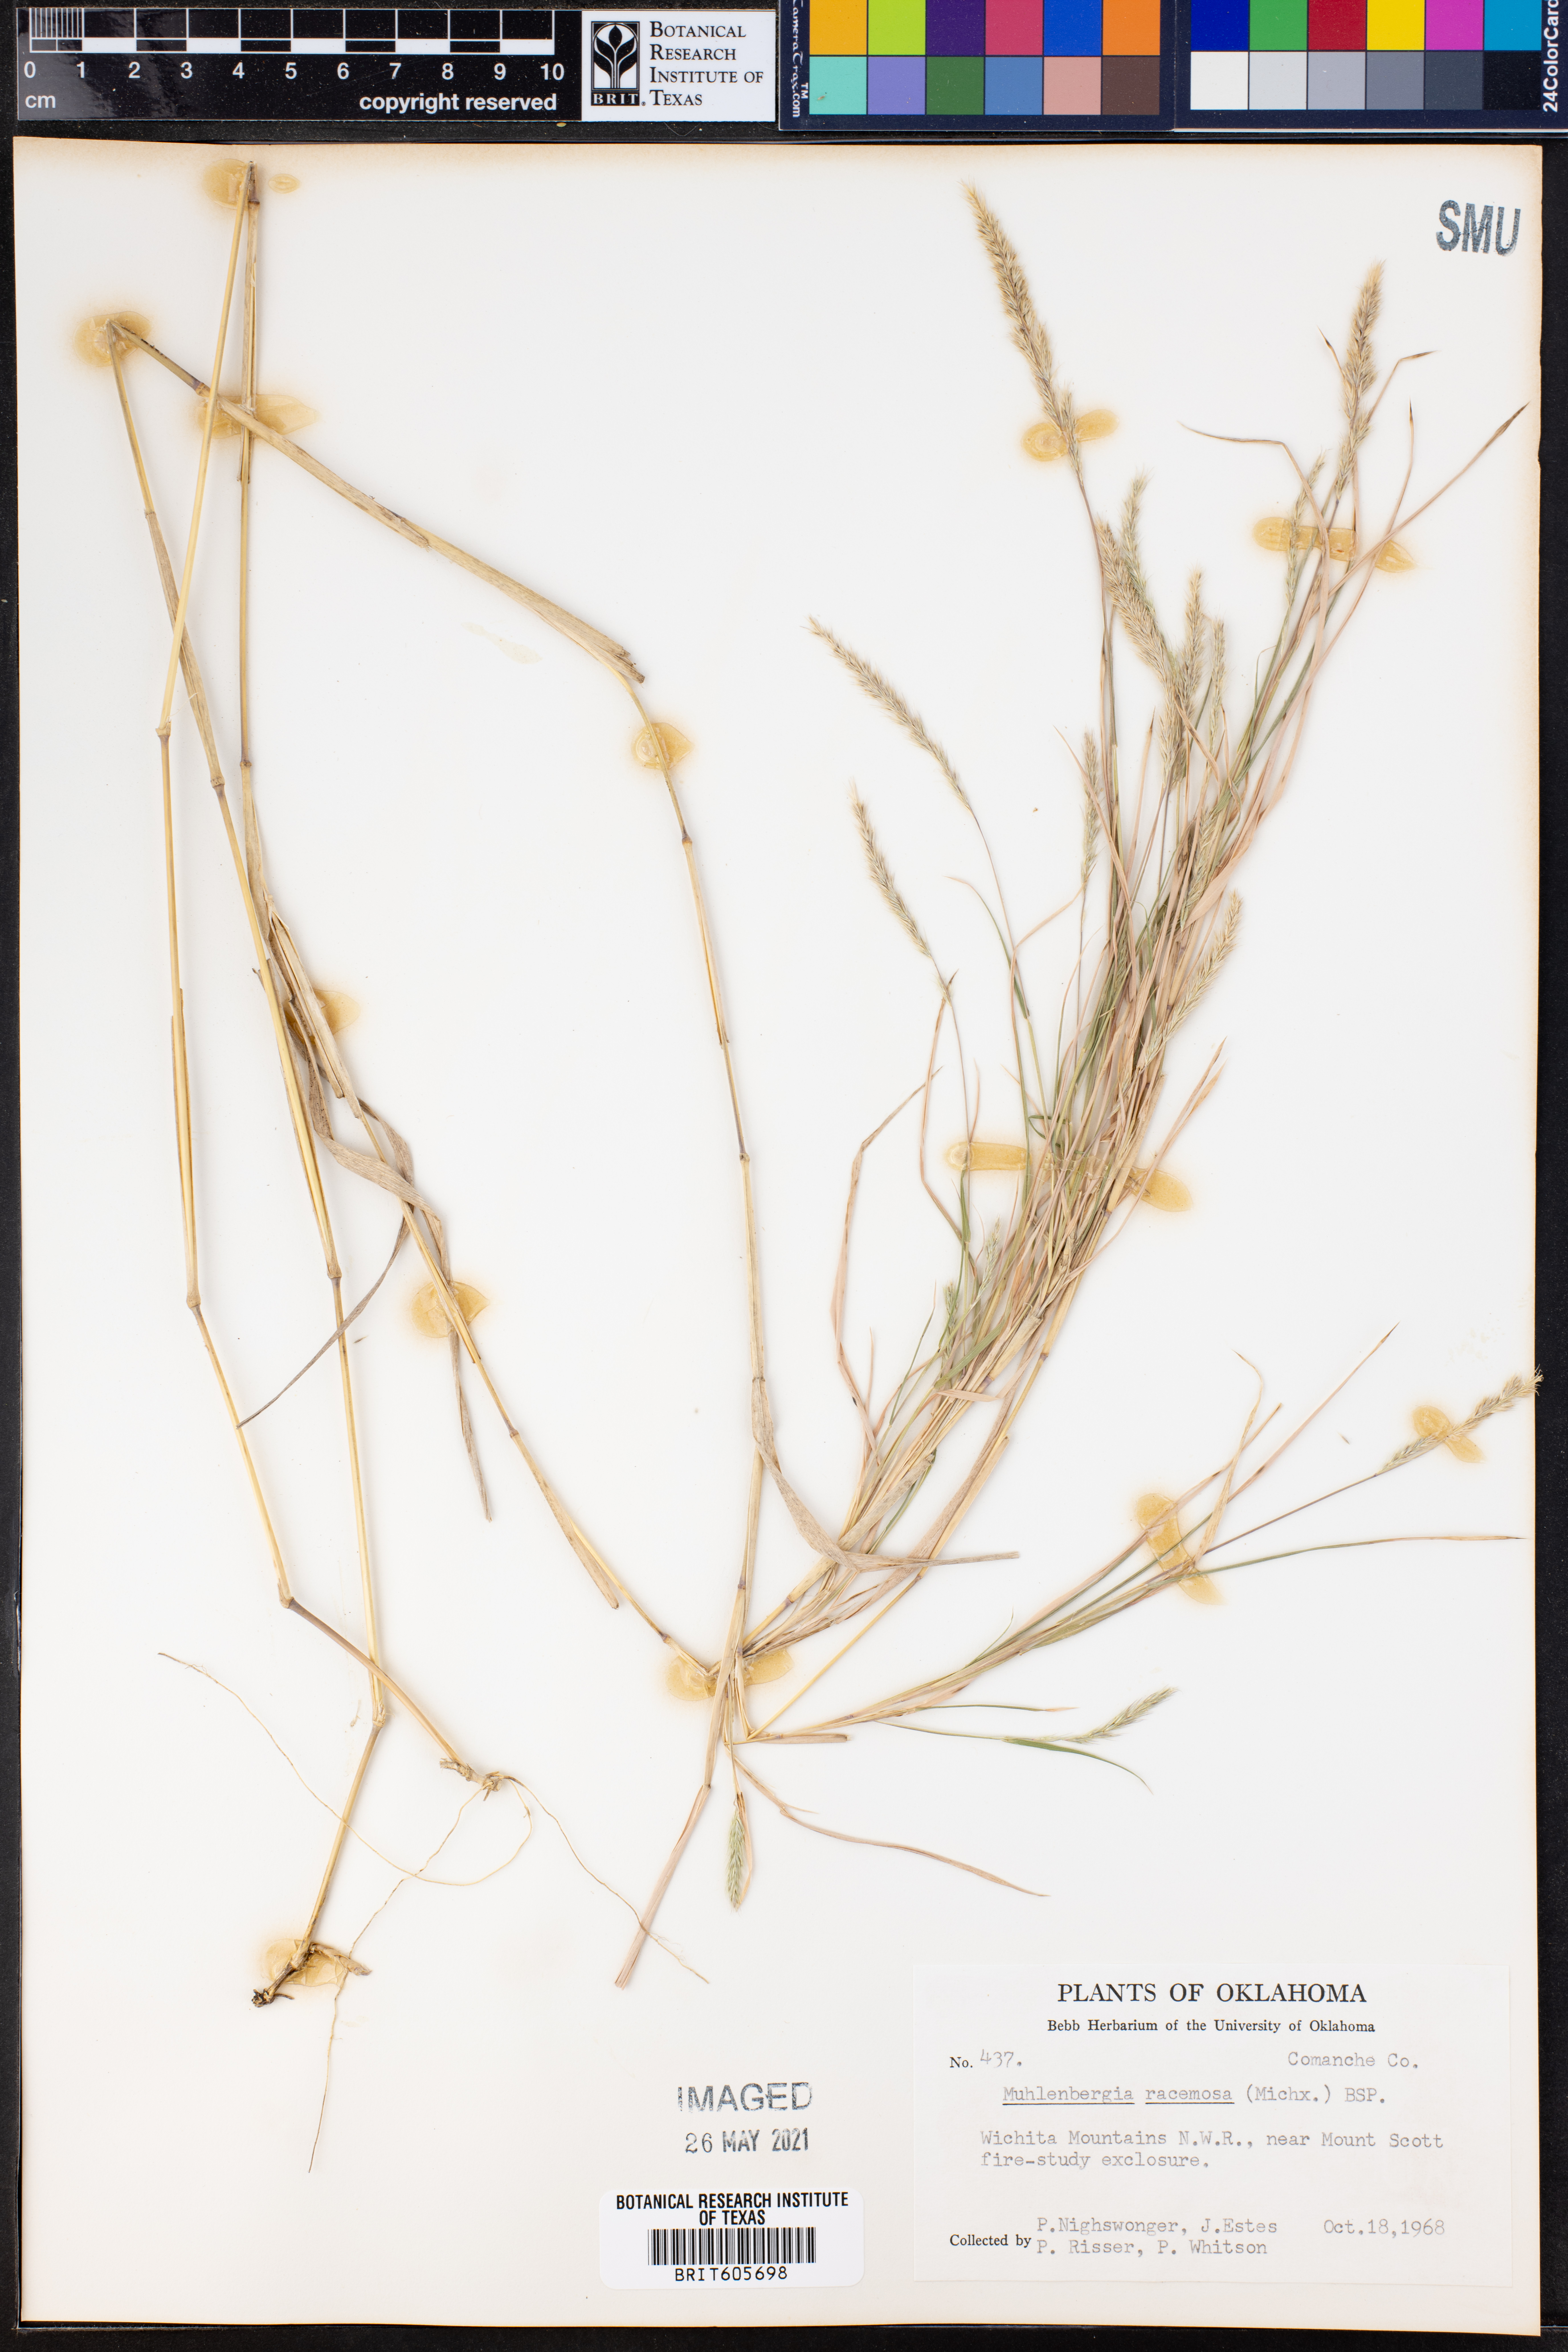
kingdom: Plantae
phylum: Tracheophyta
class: Liliopsida
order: Poales
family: Poaceae
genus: Muhlenbergia
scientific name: Muhlenbergia racemosa
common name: Green muhly
